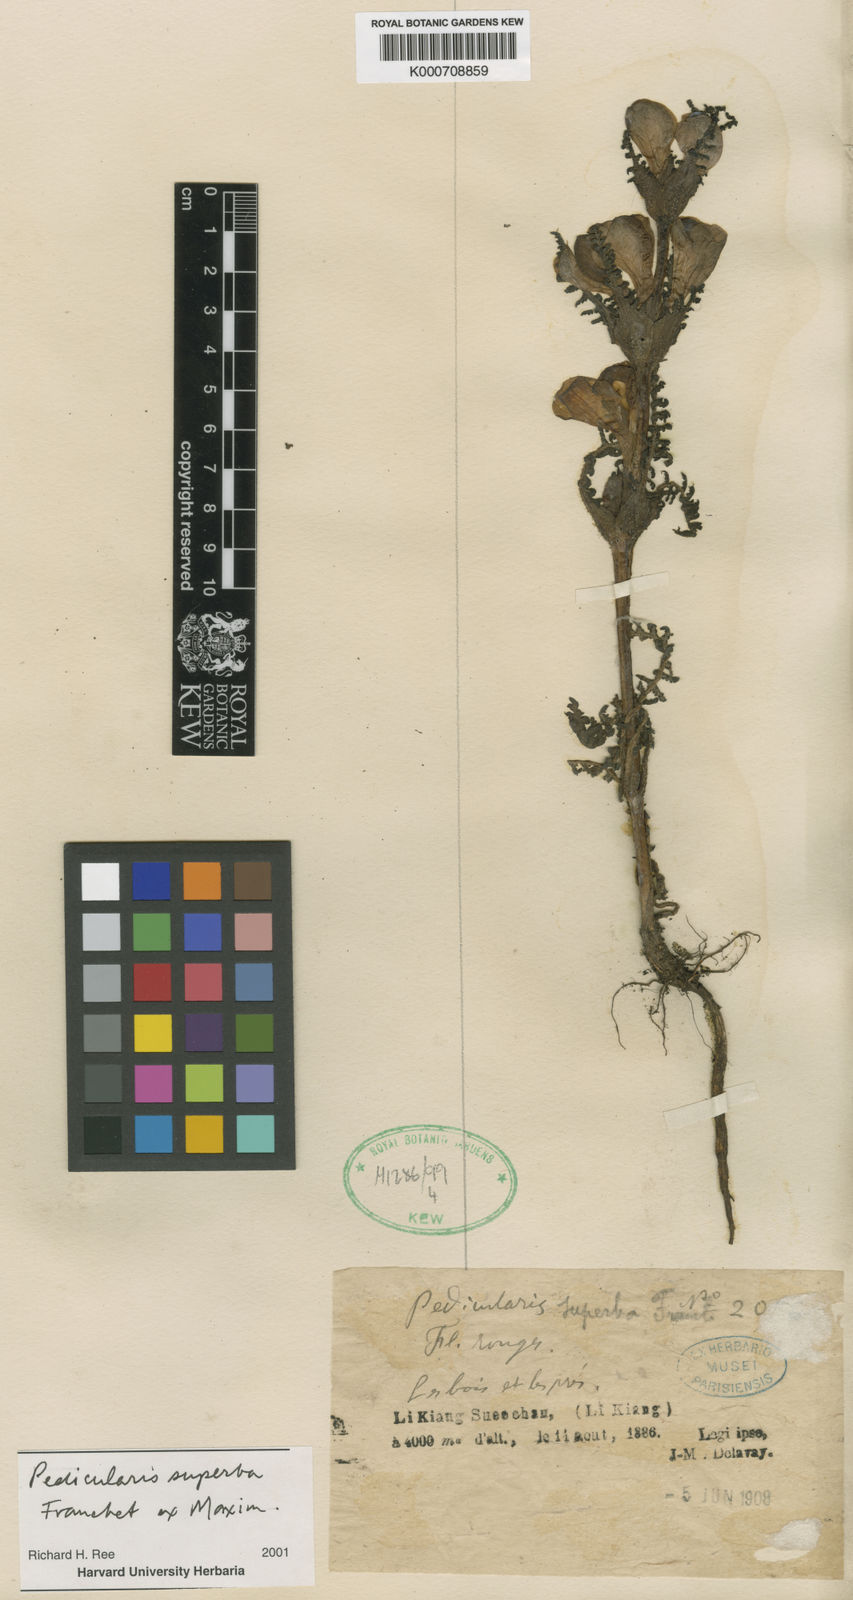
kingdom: Plantae
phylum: Tracheophyta
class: Magnoliopsida
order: Lamiales
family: Orobanchaceae
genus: Pedicularis
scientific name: Pedicularis superba
